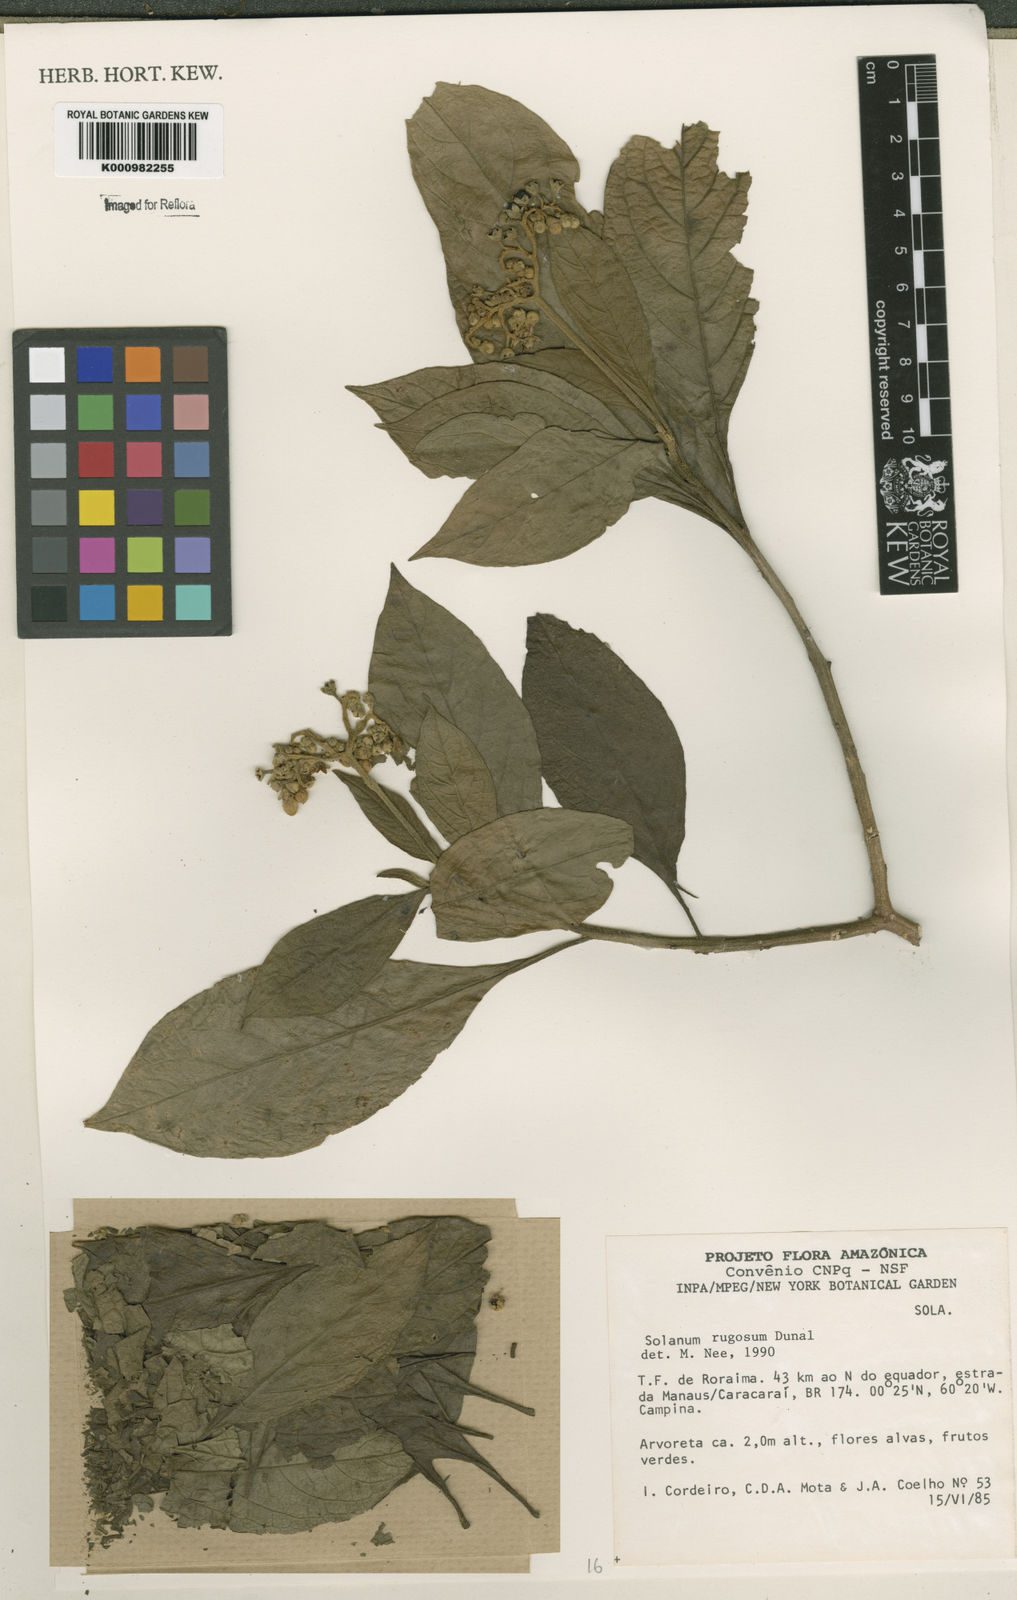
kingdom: Plantae
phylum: Tracheophyta
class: Magnoliopsida
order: Solanales
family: Solanaceae
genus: Solanum
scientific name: Solanum rugosum
